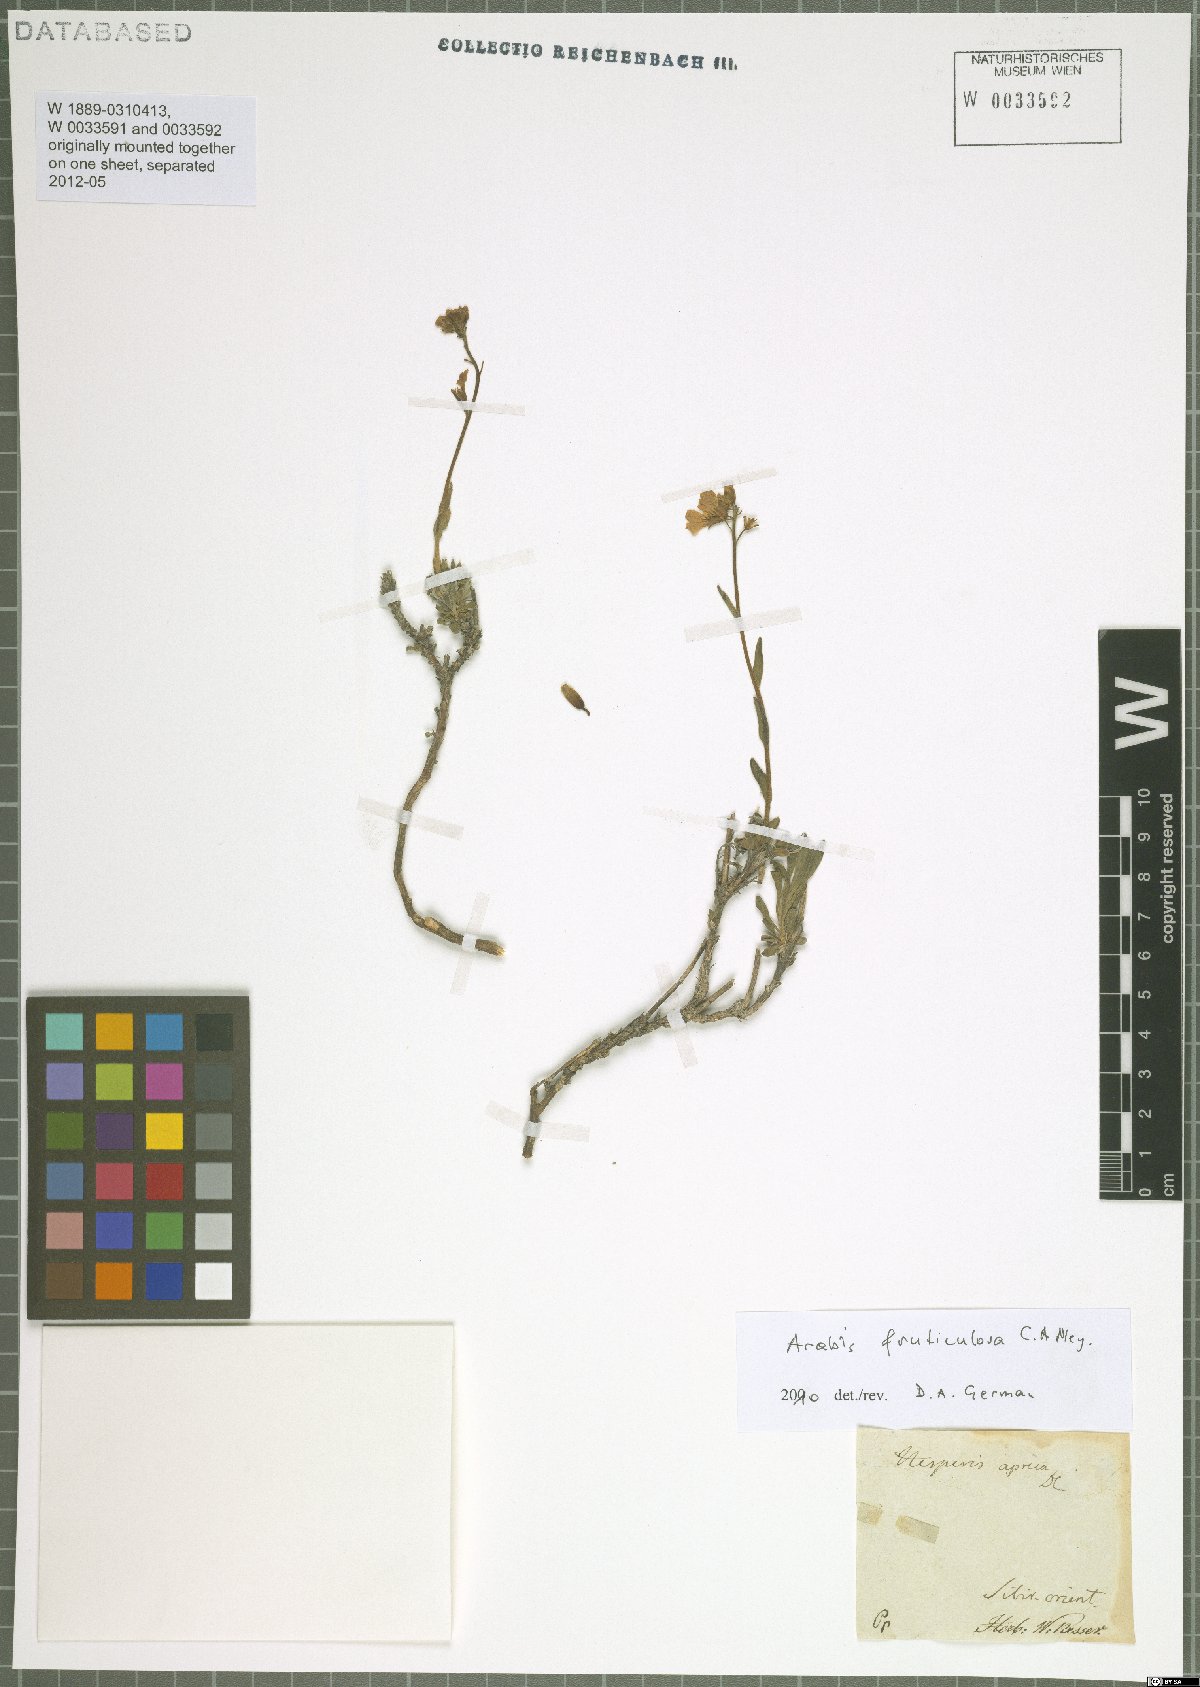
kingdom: Plantae
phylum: Tracheophyta
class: Magnoliopsida
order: Brassicales
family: Brassicaceae
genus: Dendroarabis
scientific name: Dendroarabis fruticulosa
